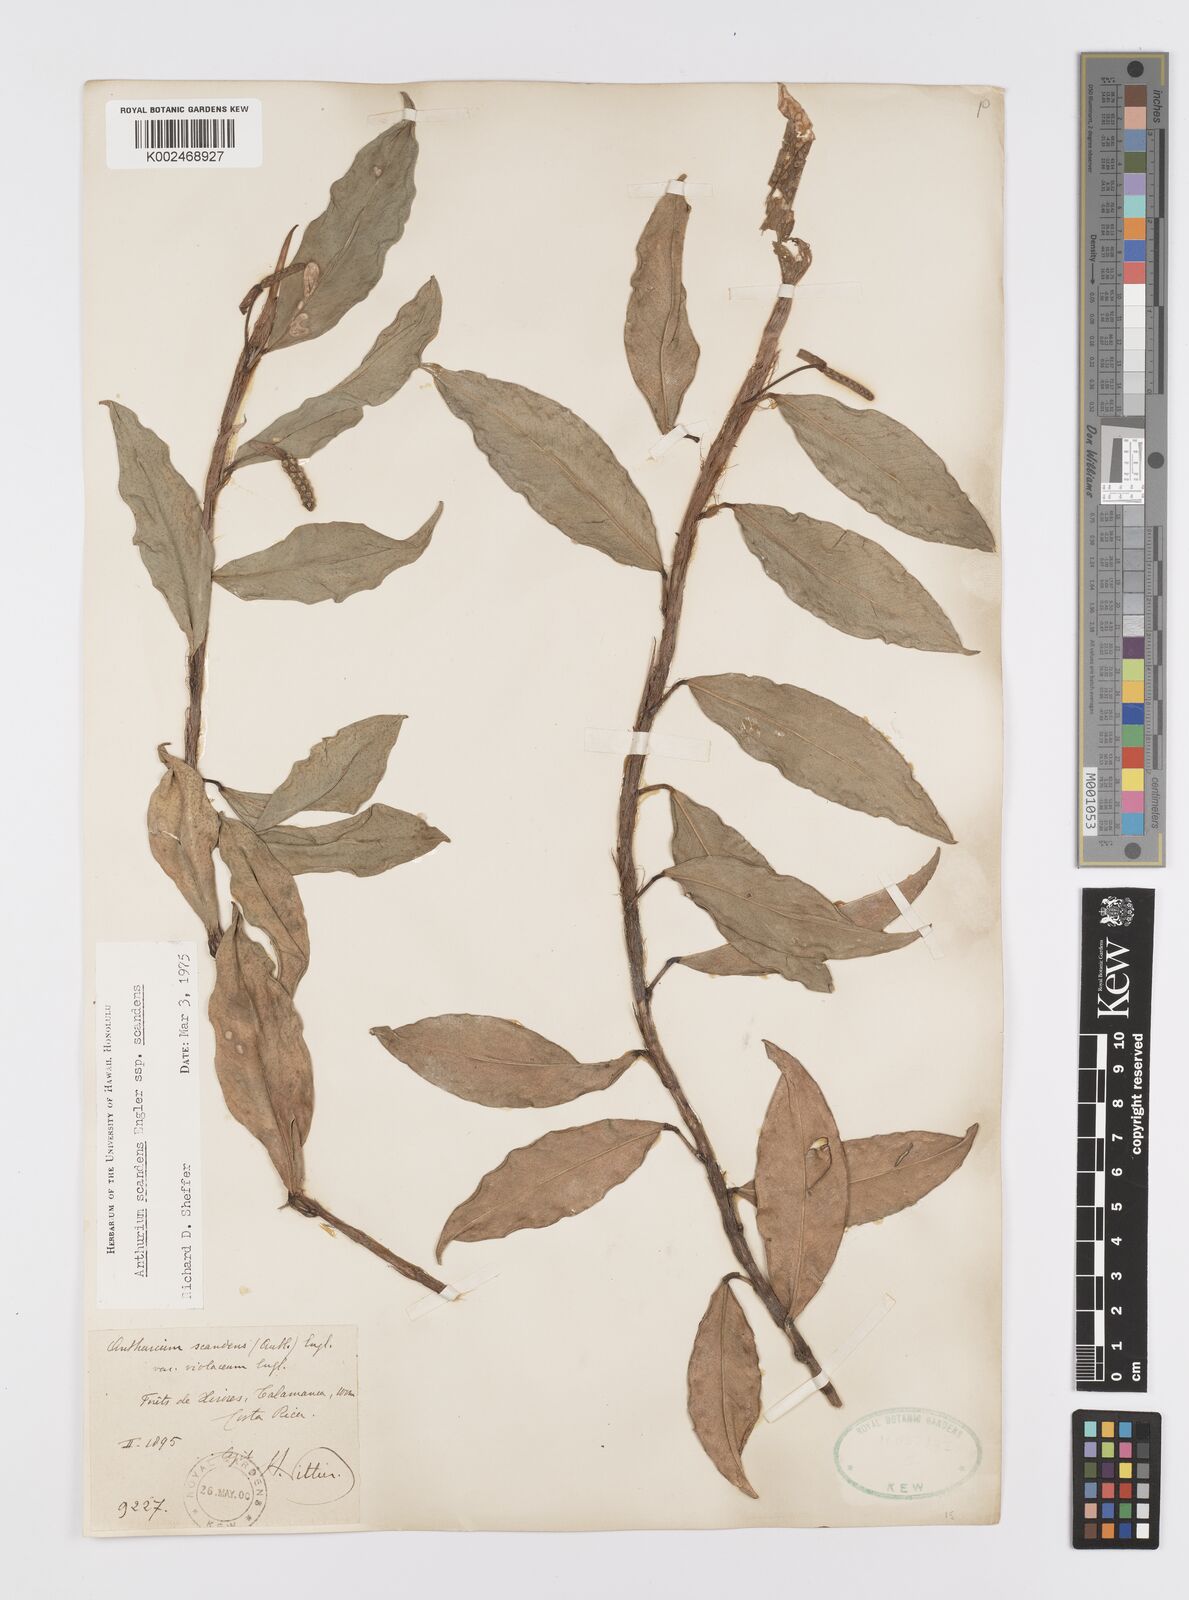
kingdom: Plantae
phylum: Tracheophyta
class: Liliopsida
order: Alismatales
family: Araceae
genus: Anthurium
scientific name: Anthurium scandens
